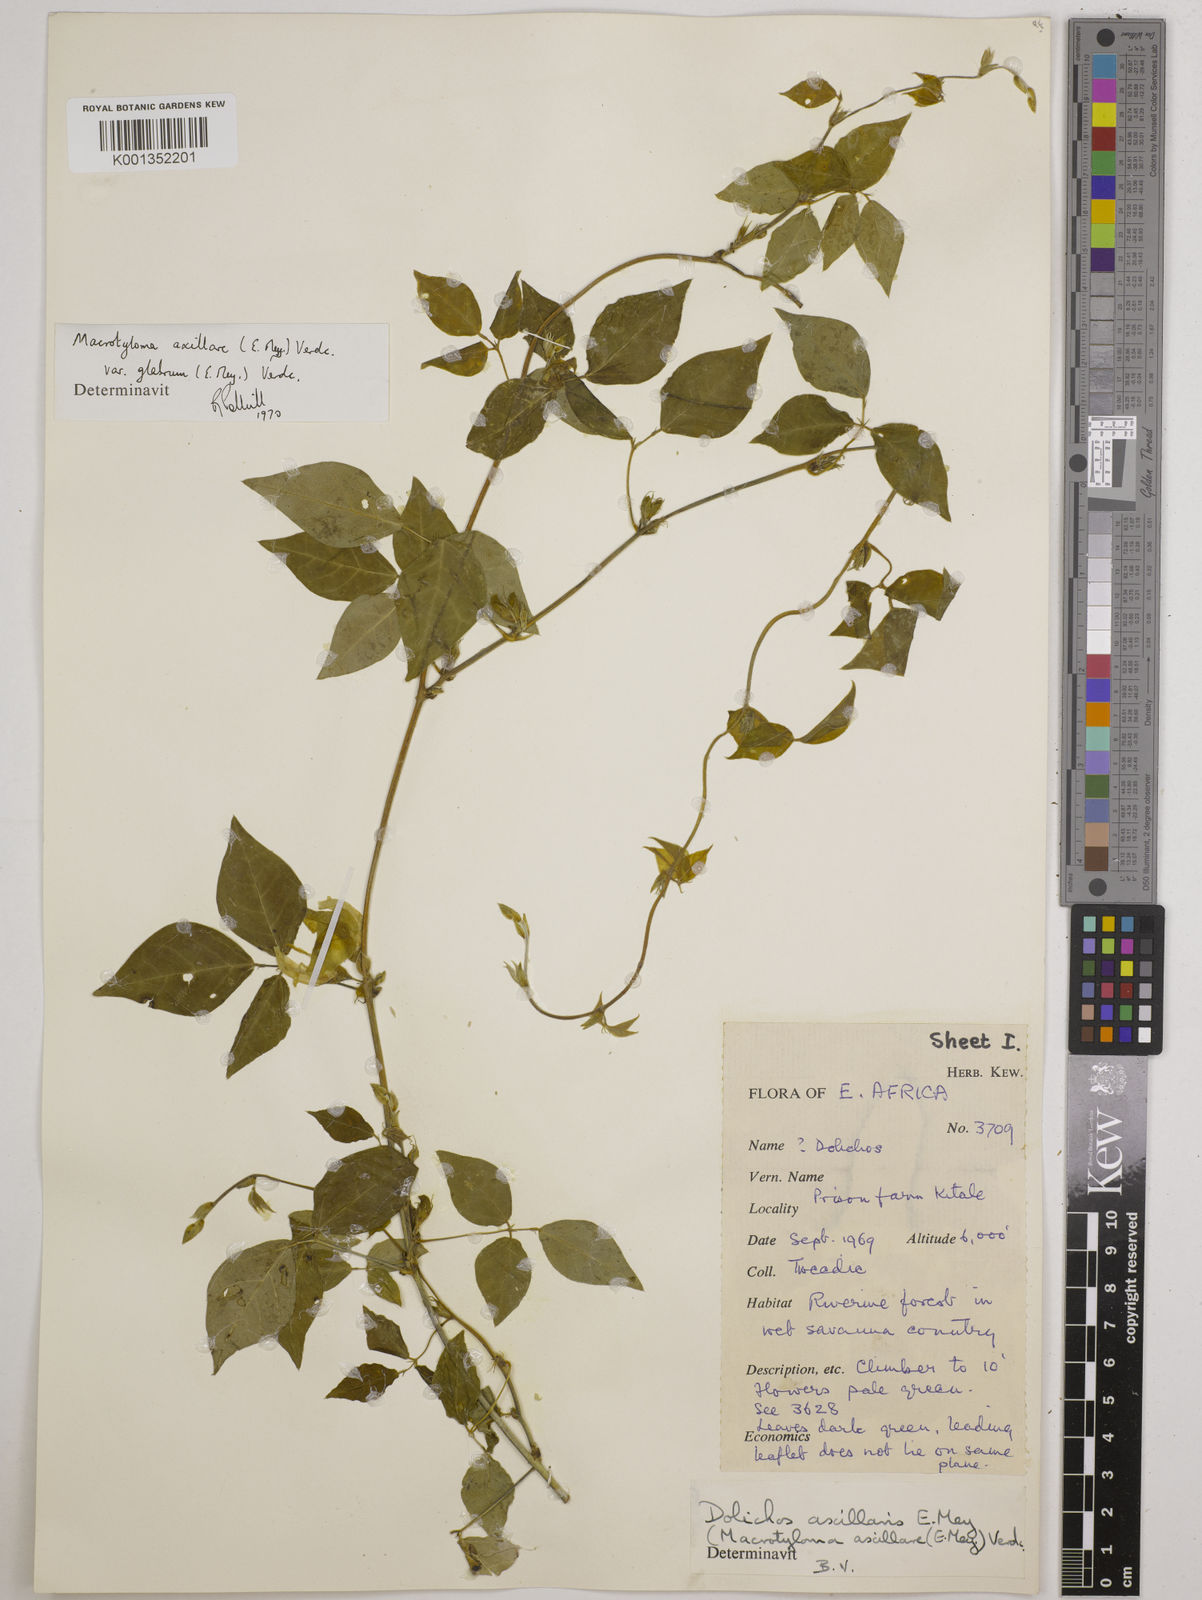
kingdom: Plantae
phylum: Tracheophyta
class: Magnoliopsida
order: Fabales
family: Fabaceae
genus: Macrotyloma
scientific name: Macrotyloma
